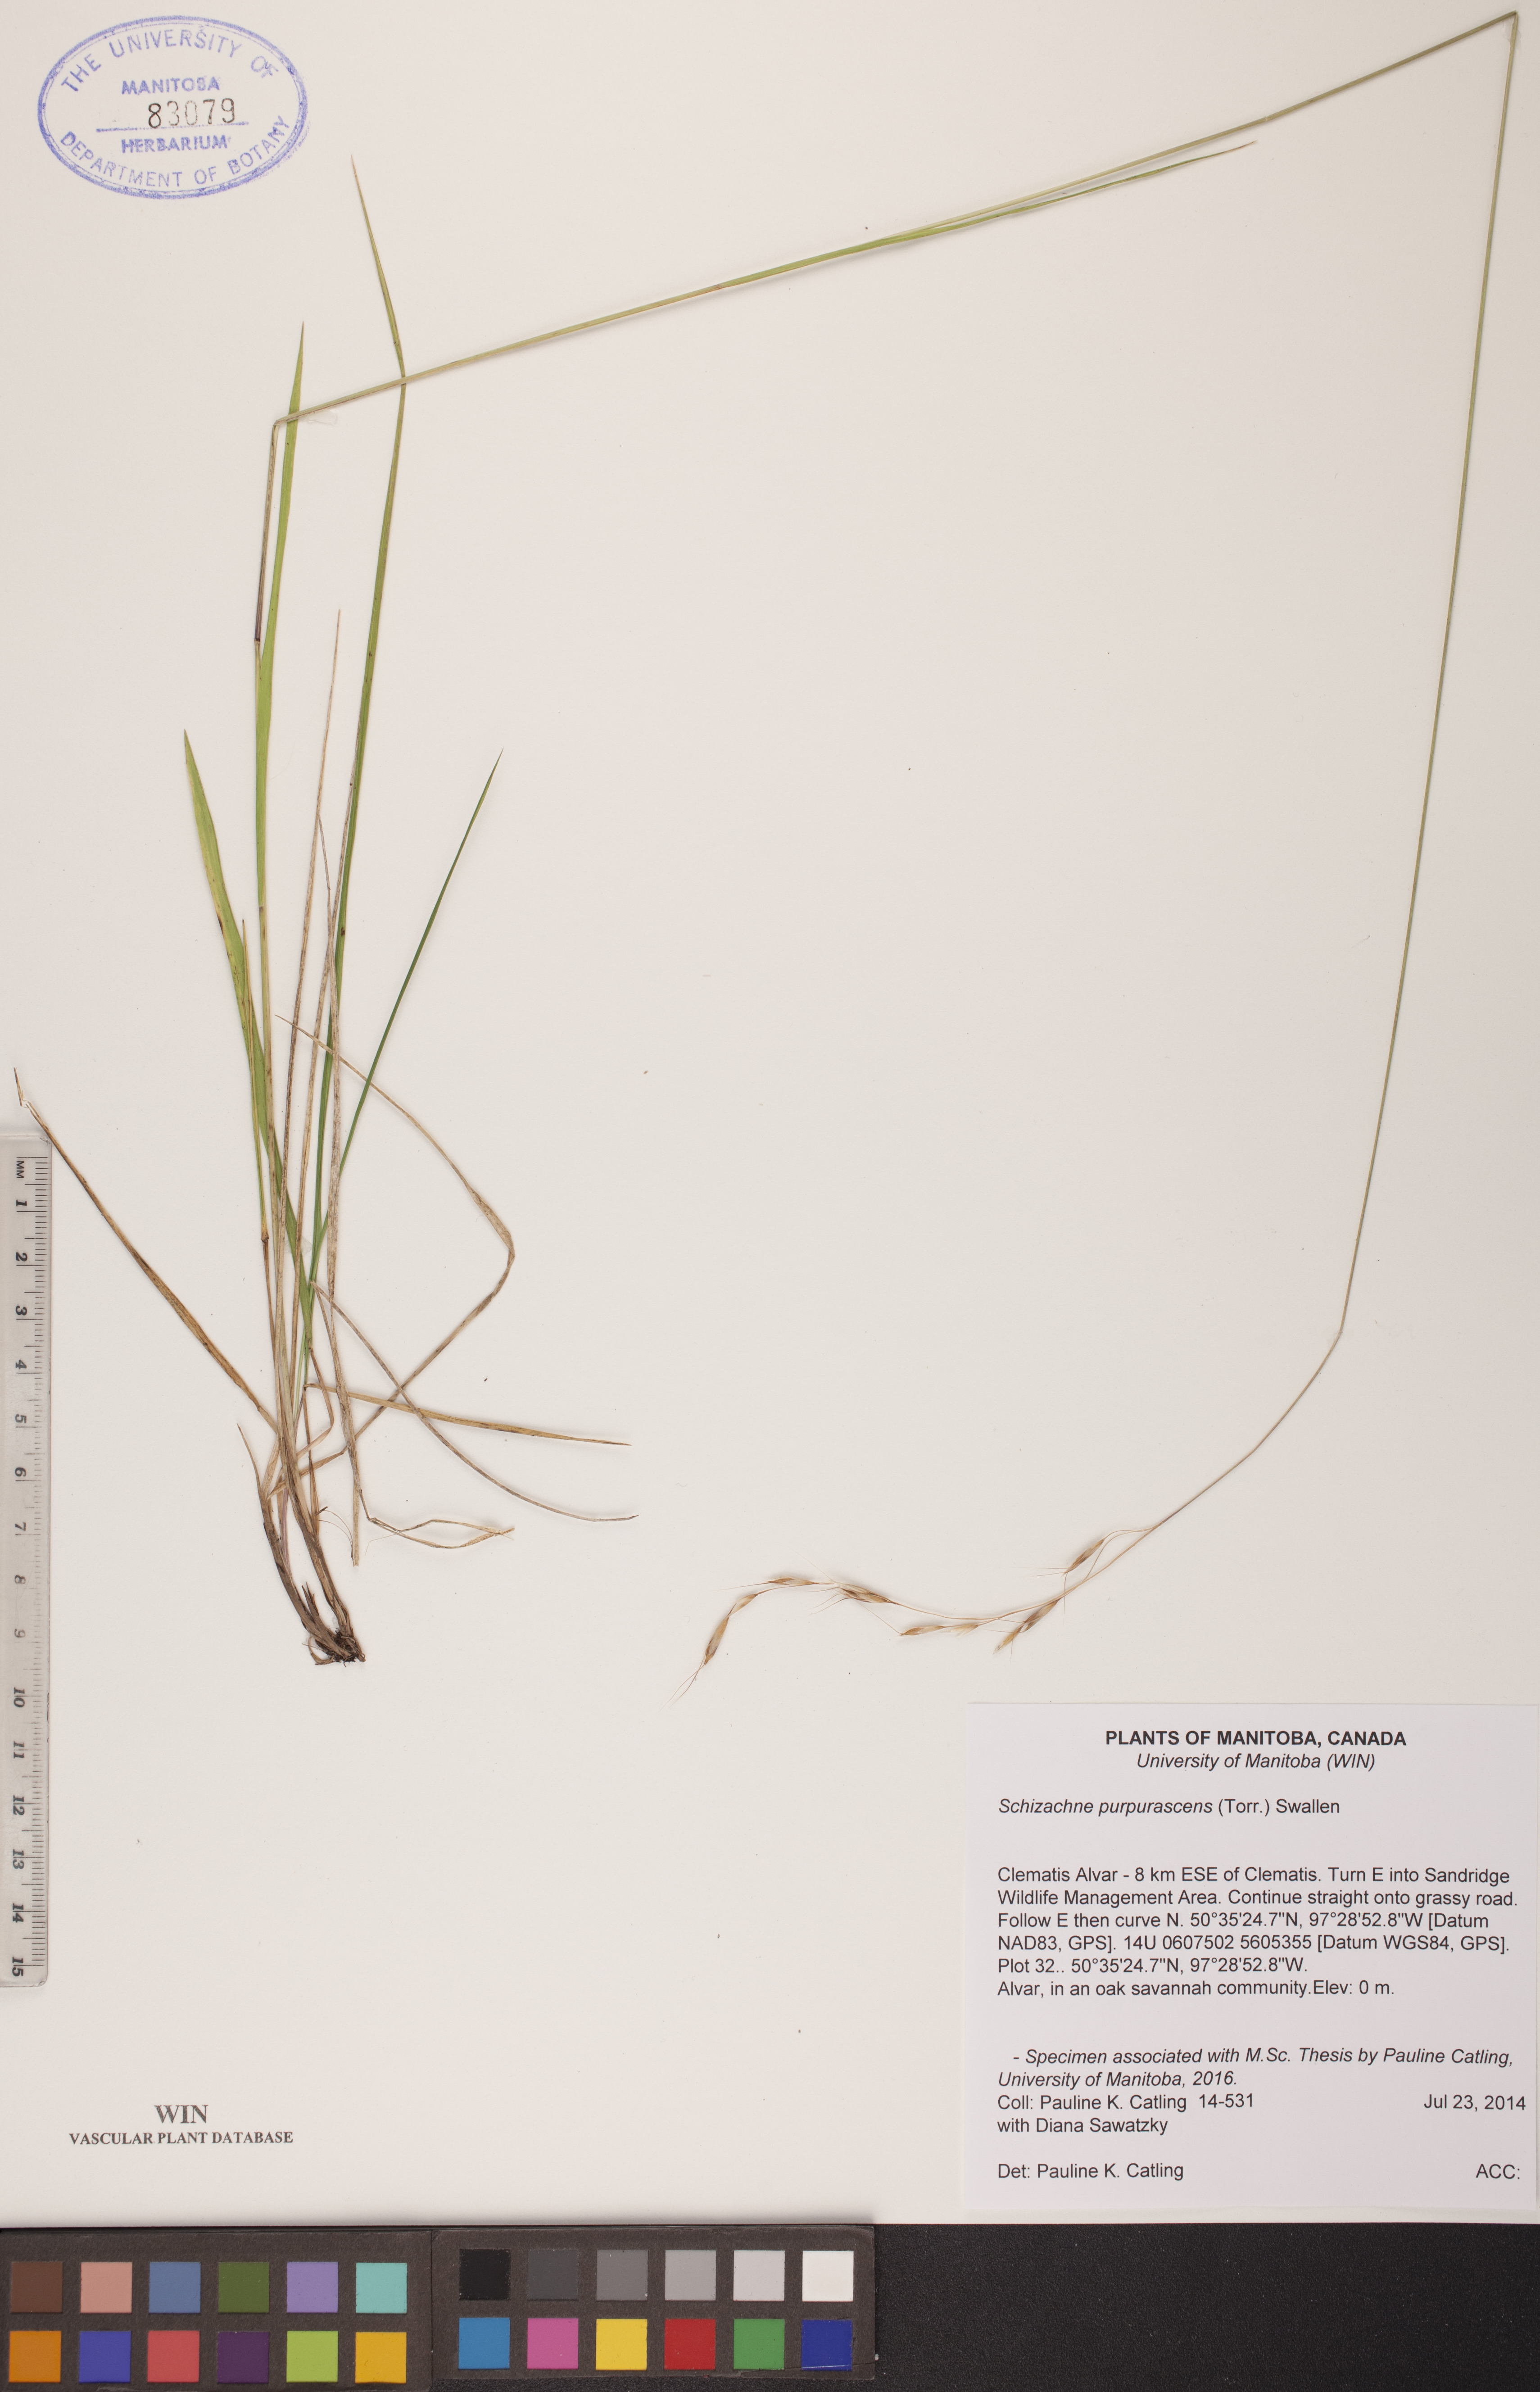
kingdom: Plantae
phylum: Tracheophyta
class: Liliopsida
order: Poales
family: Poaceae
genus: Schizachne
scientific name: Schizachne purpurascens
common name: False melic
